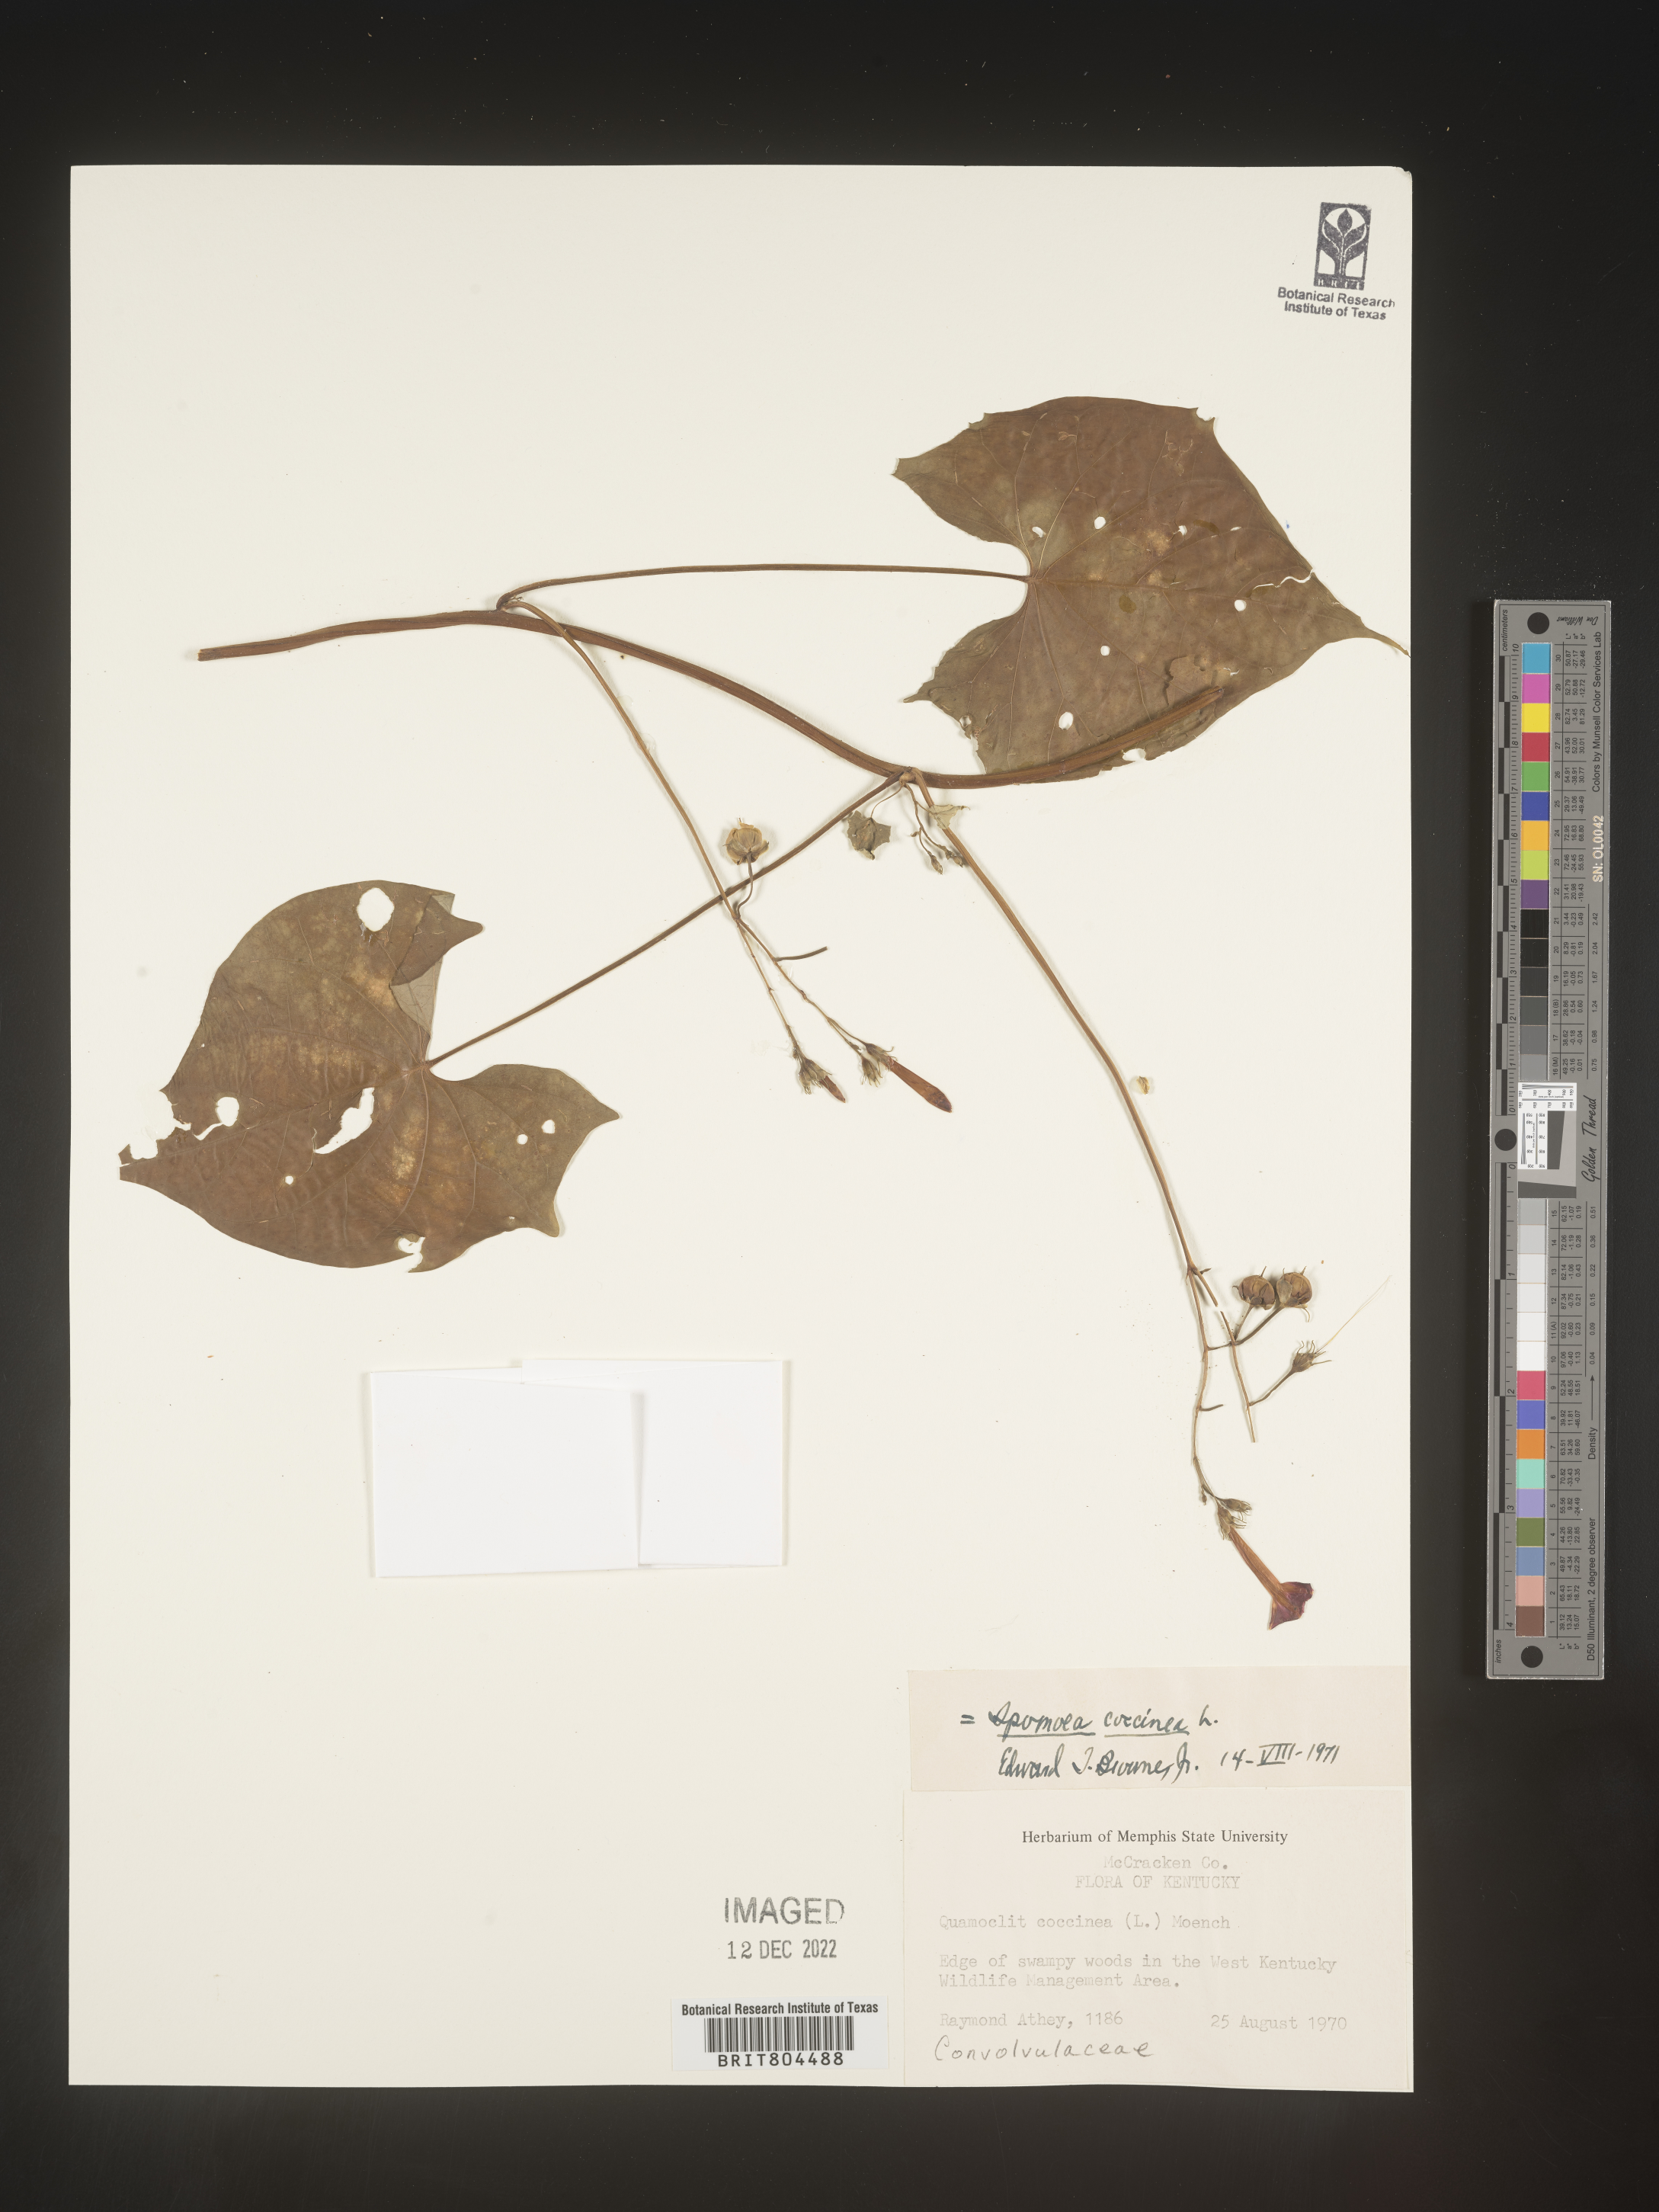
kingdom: Plantae
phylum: Tracheophyta
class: Magnoliopsida
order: Solanales
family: Convolvulaceae
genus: Ipomoea
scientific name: Ipomoea coccinea
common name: Red morning-glory
